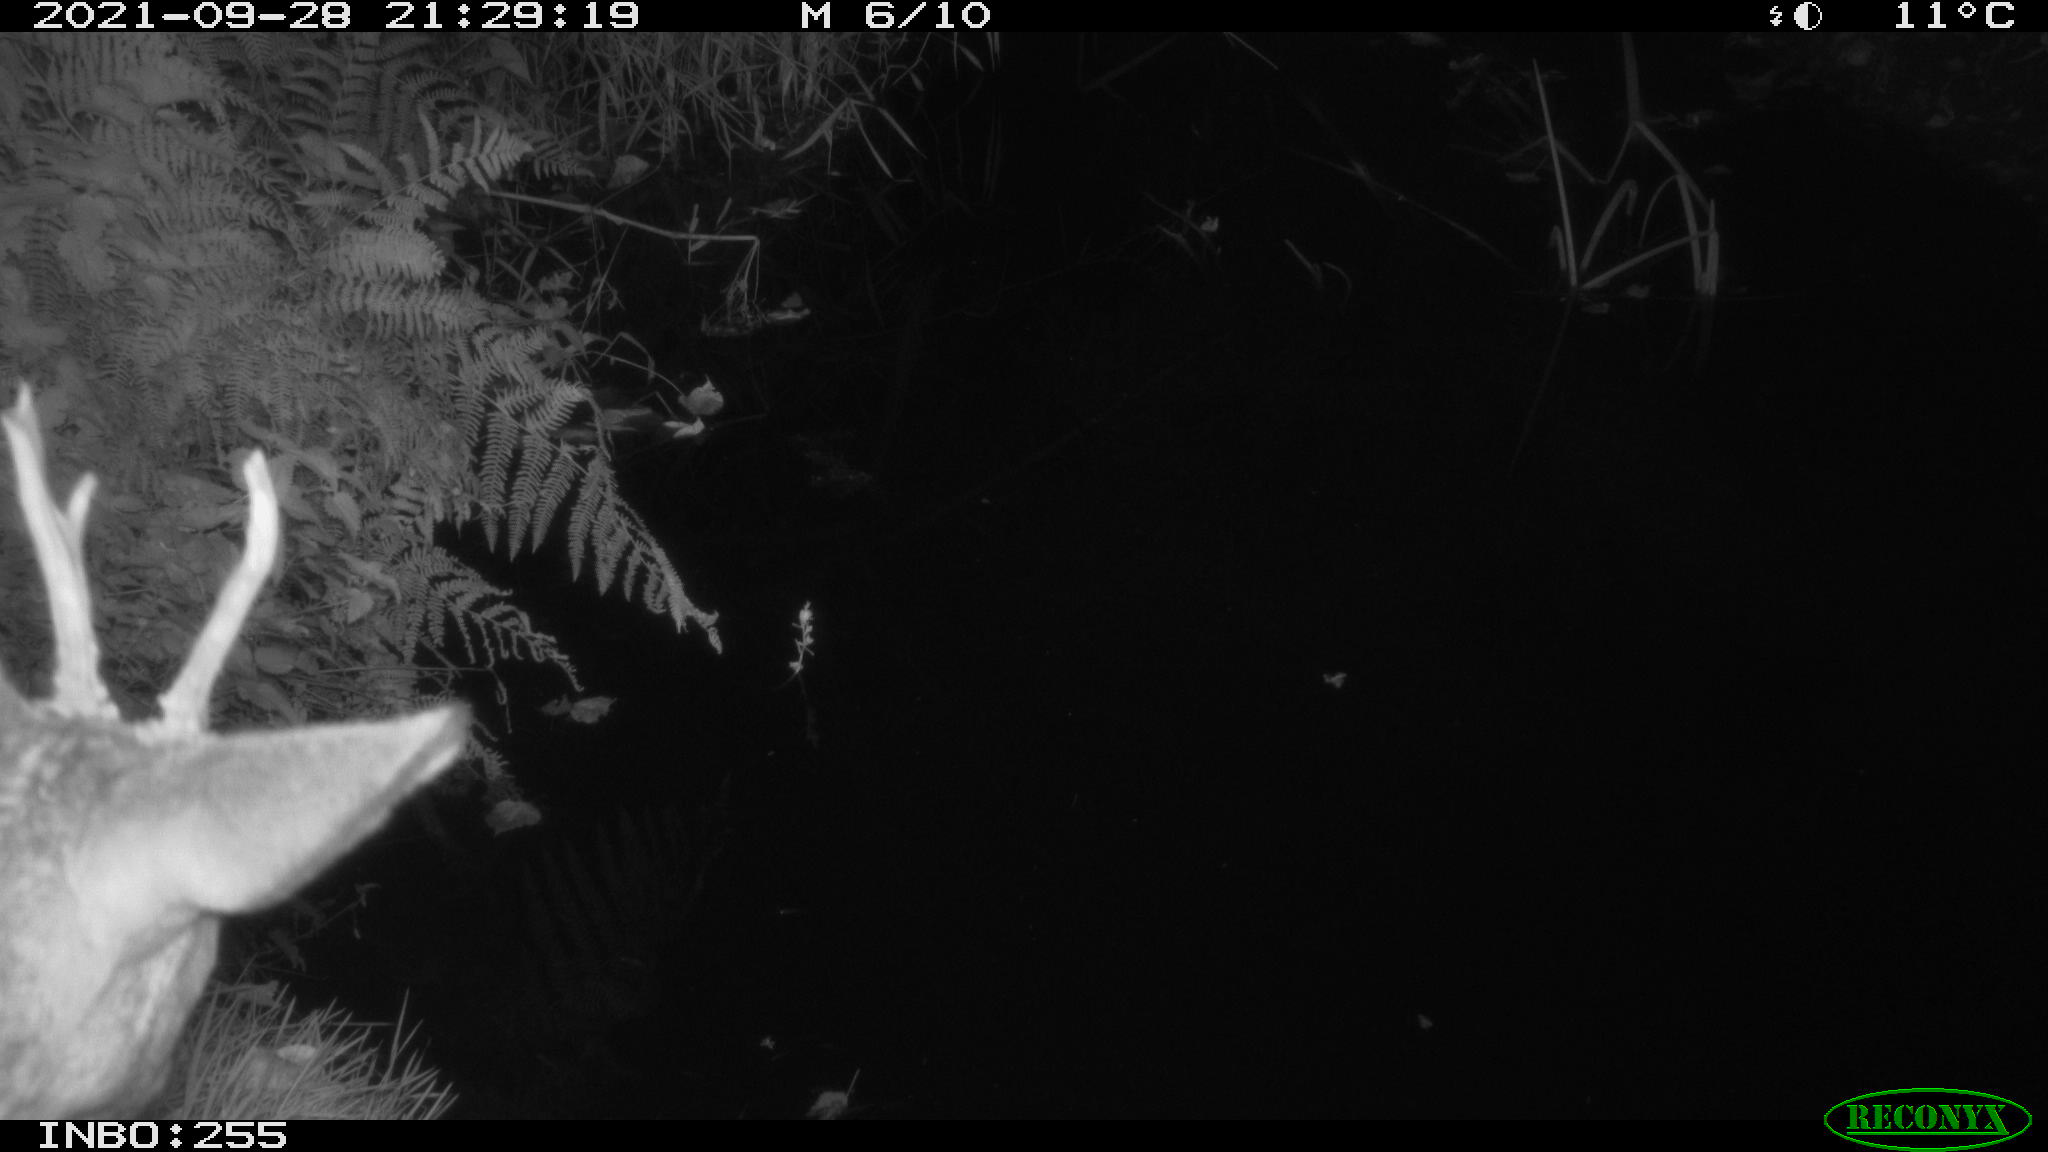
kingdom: Animalia
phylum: Chordata
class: Mammalia
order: Artiodactyla
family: Cervidae
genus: Capreolus
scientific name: Capreolus capreolus
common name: Western roe deer
